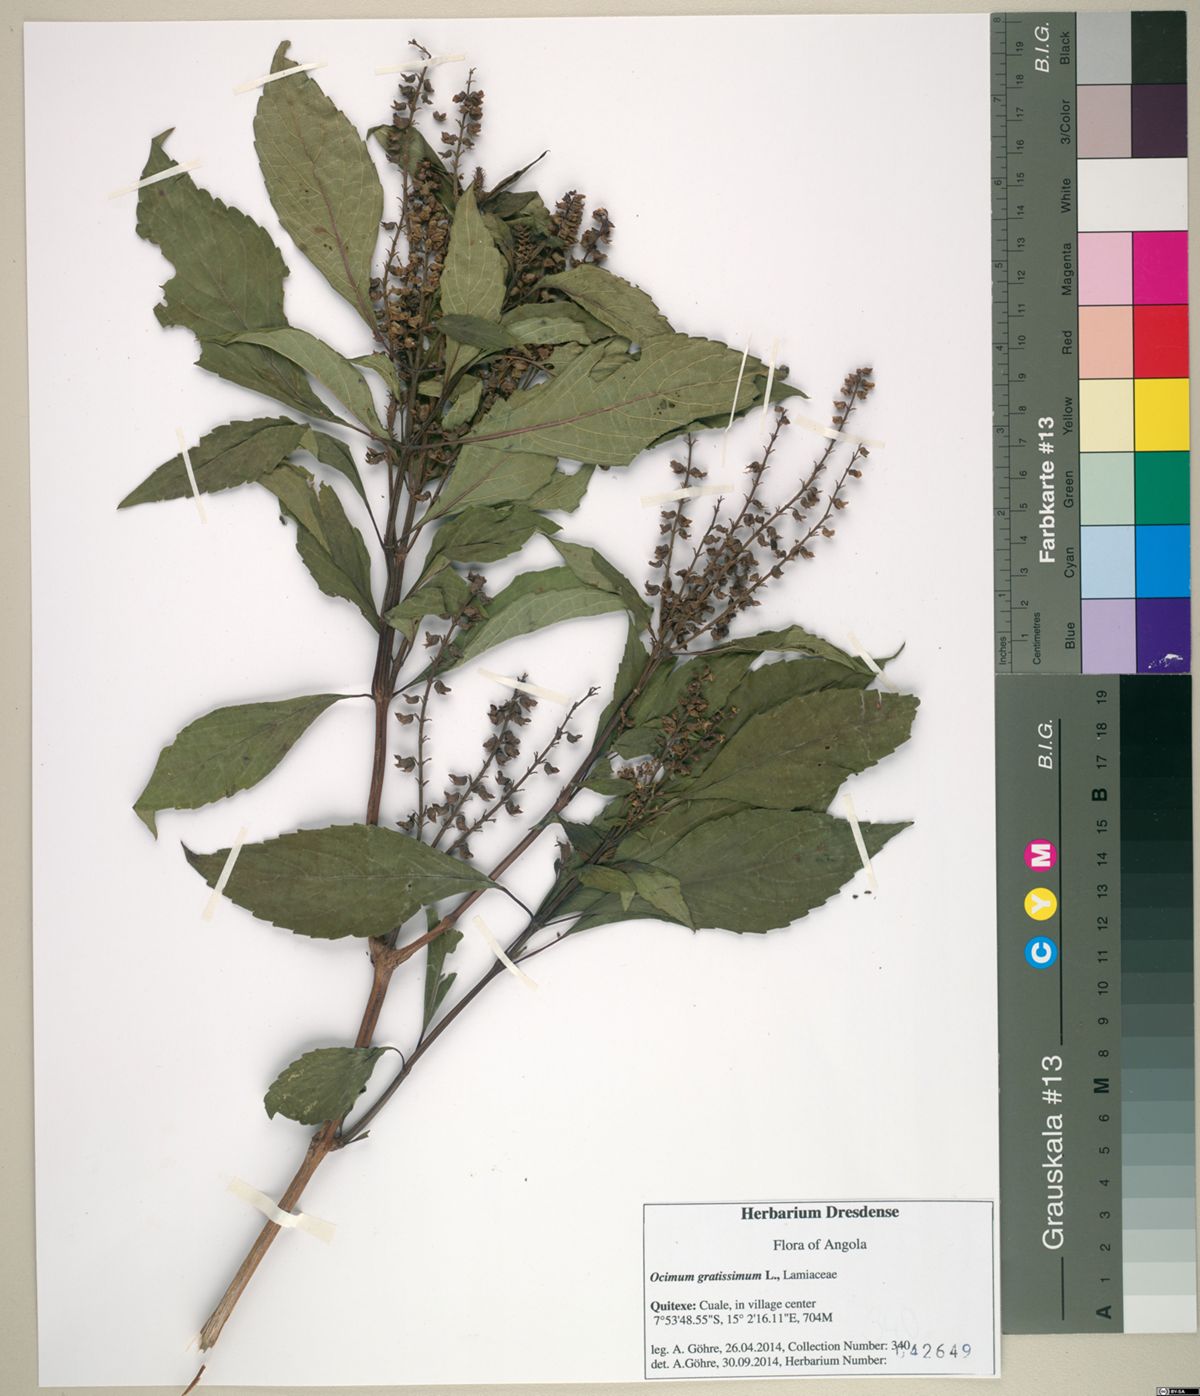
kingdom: Plantae
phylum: Tracheophyta
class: Magnoliopsida
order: Lamiales
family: Lamiaceae
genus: Ocimum
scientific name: Ocimum gratissimum
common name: African basil
